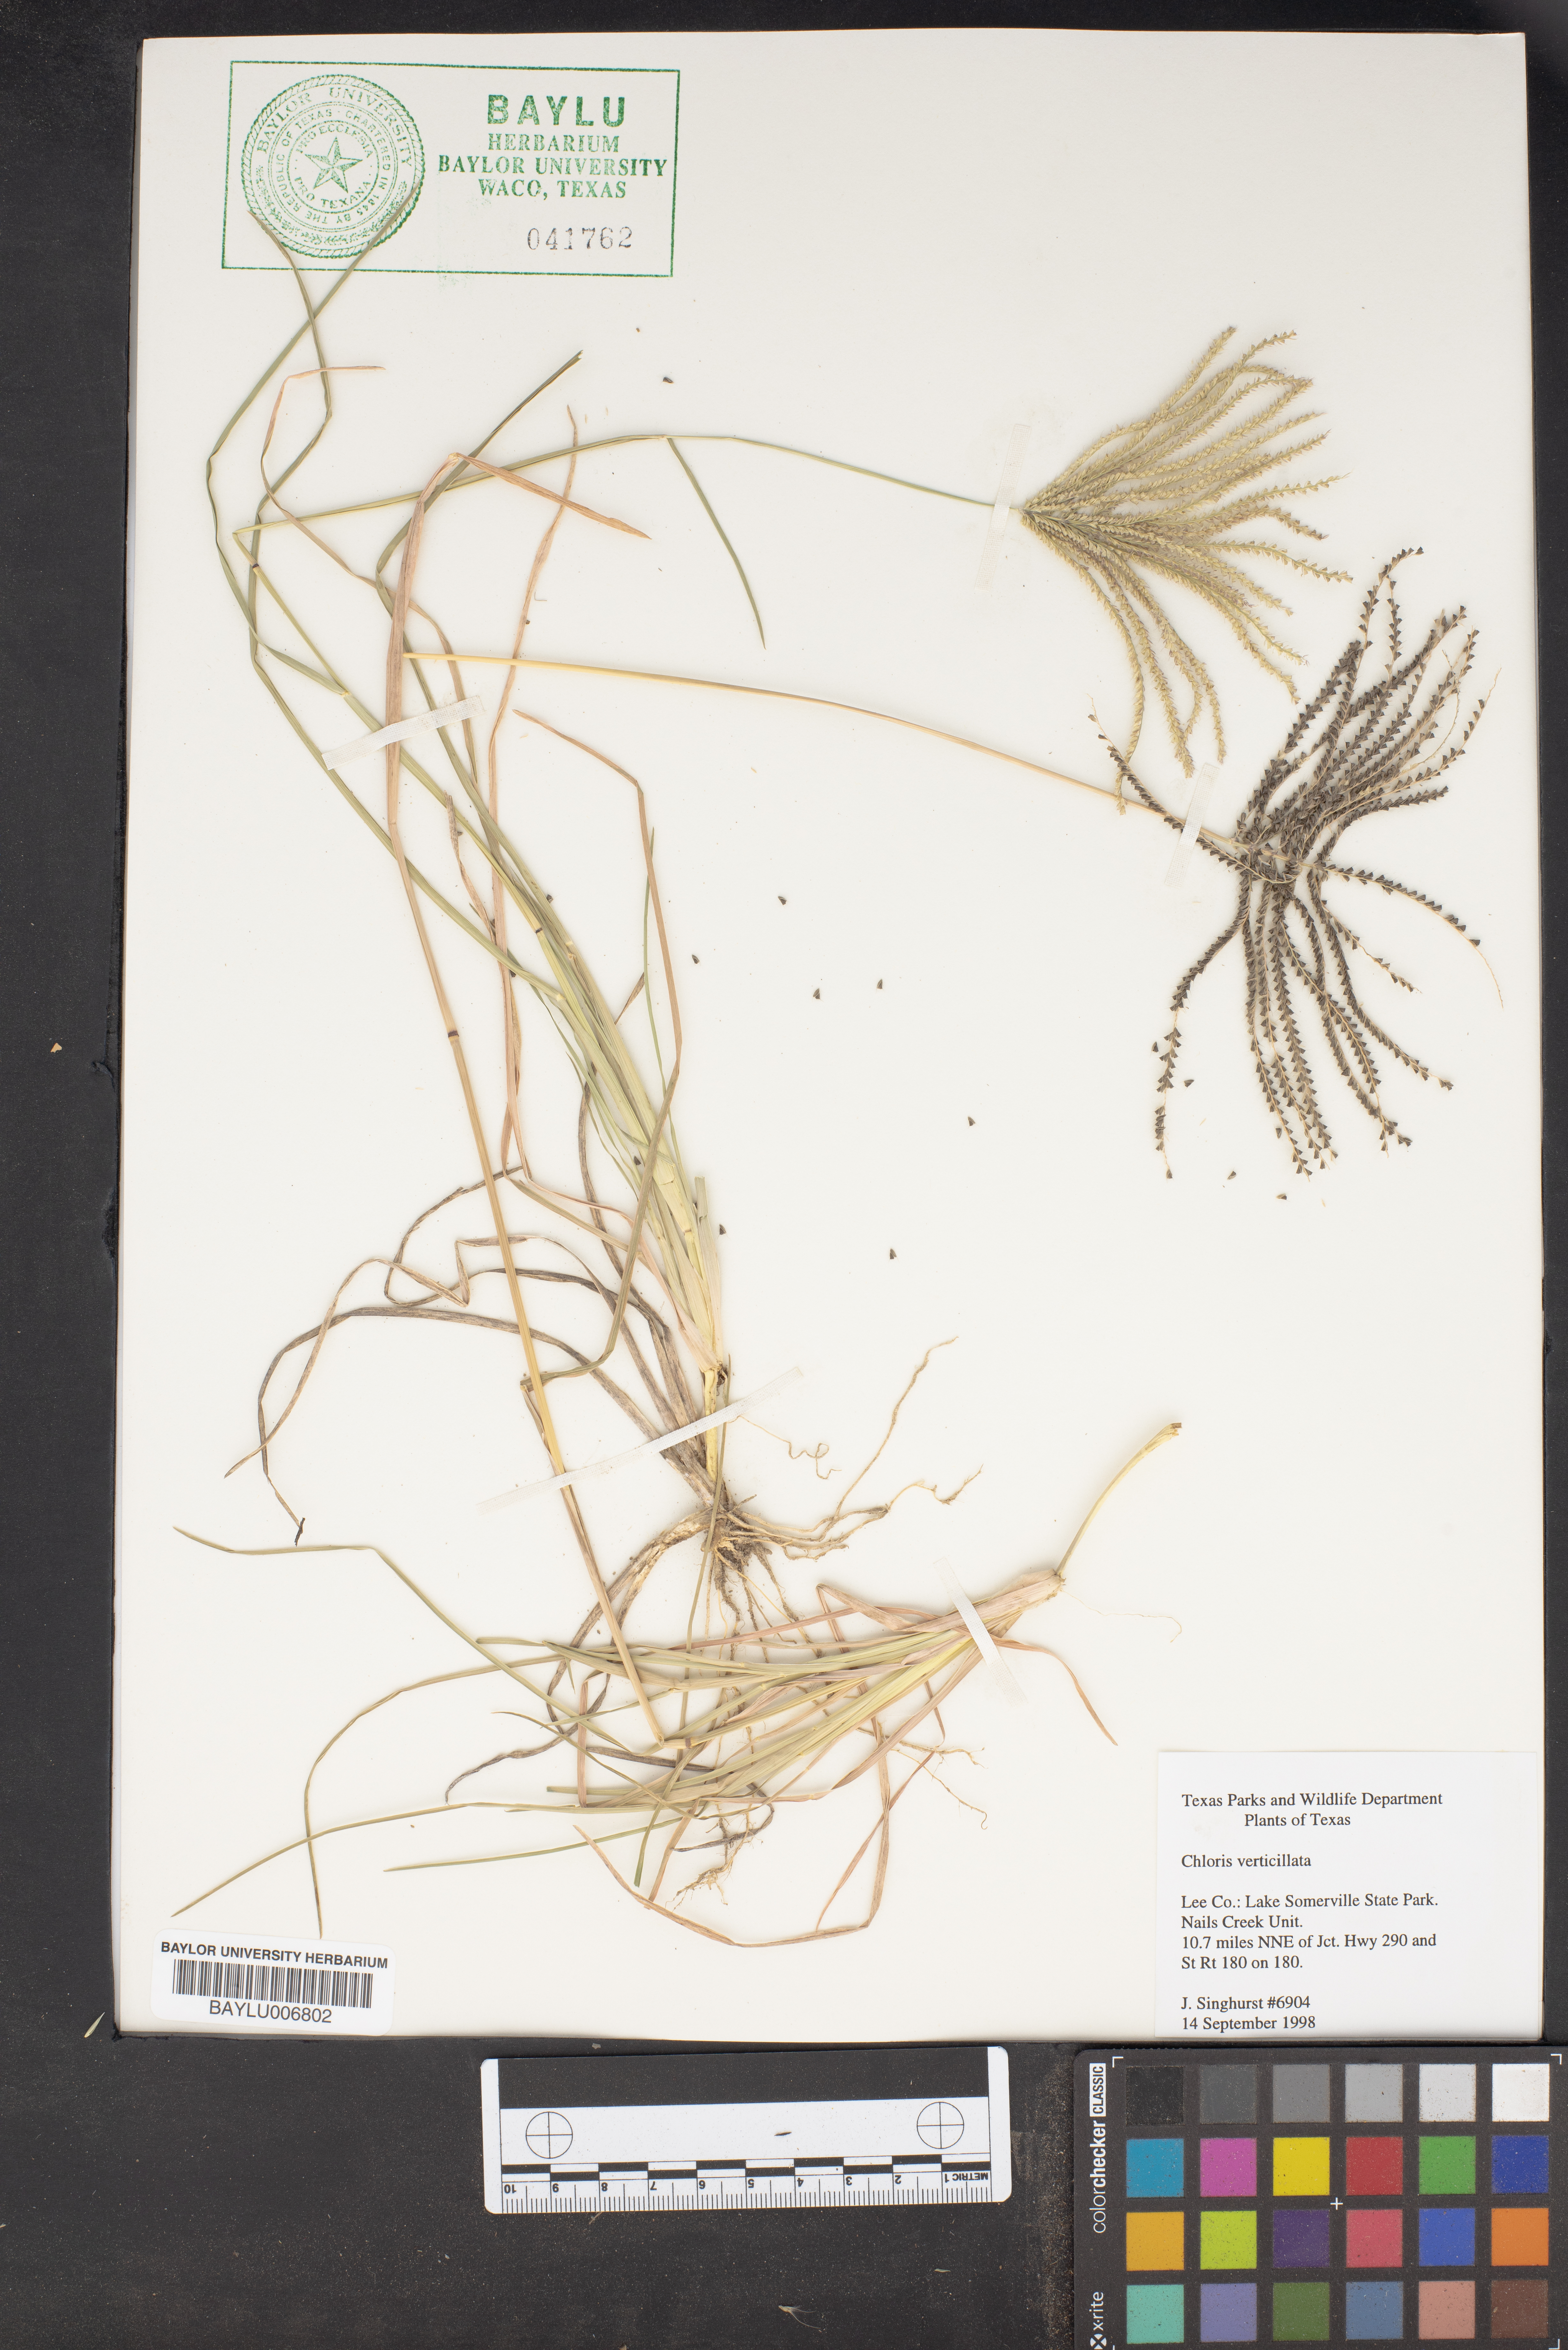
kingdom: Plantae
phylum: Tracheophyta
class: Liliopsida
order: Poales
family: Poaceae
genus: Chloris
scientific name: Chloris verticillata
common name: Tumble windmill grass
